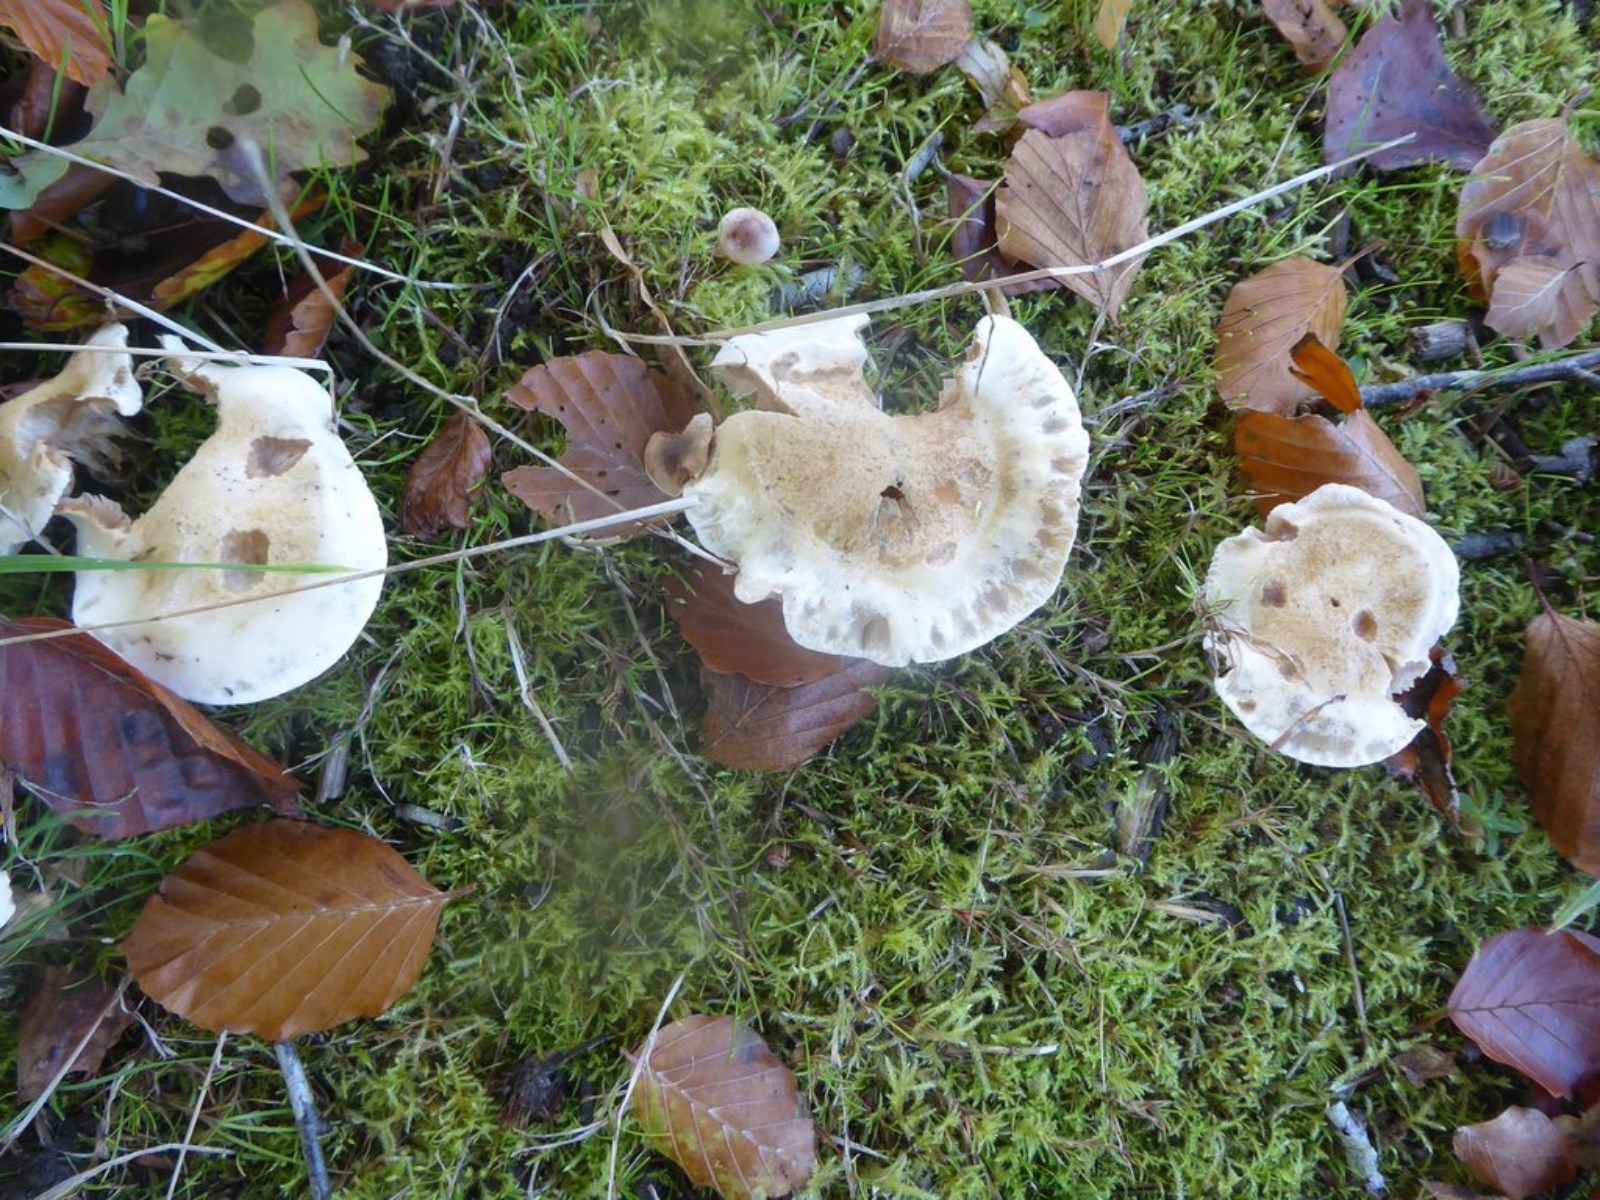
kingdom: Fungi
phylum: Basidiomycota
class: Agaricomycetes
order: Agaricales
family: Hymenogastraceae
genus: Hebeloma
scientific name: Hebeloma
